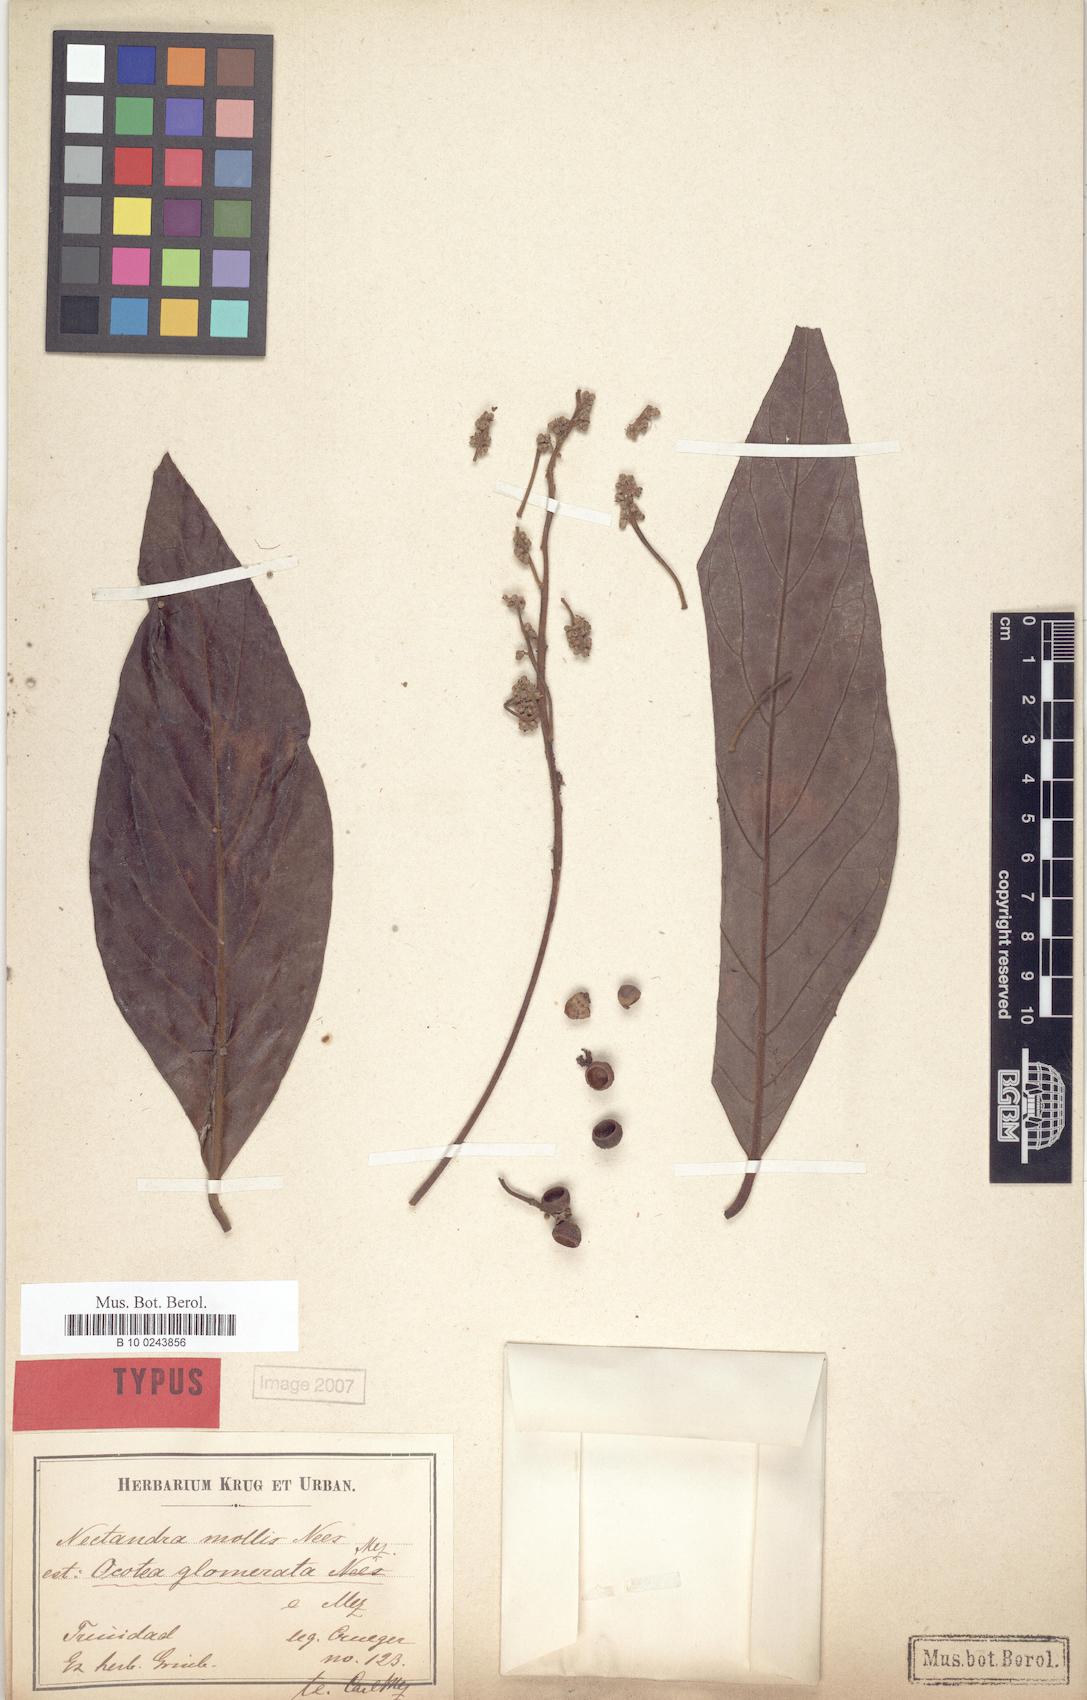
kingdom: Plantae
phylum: Tracheophyta
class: Magnoliopsida
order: Laurales
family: Lauraceae
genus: Ocotea
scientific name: Ocotea glomerata
